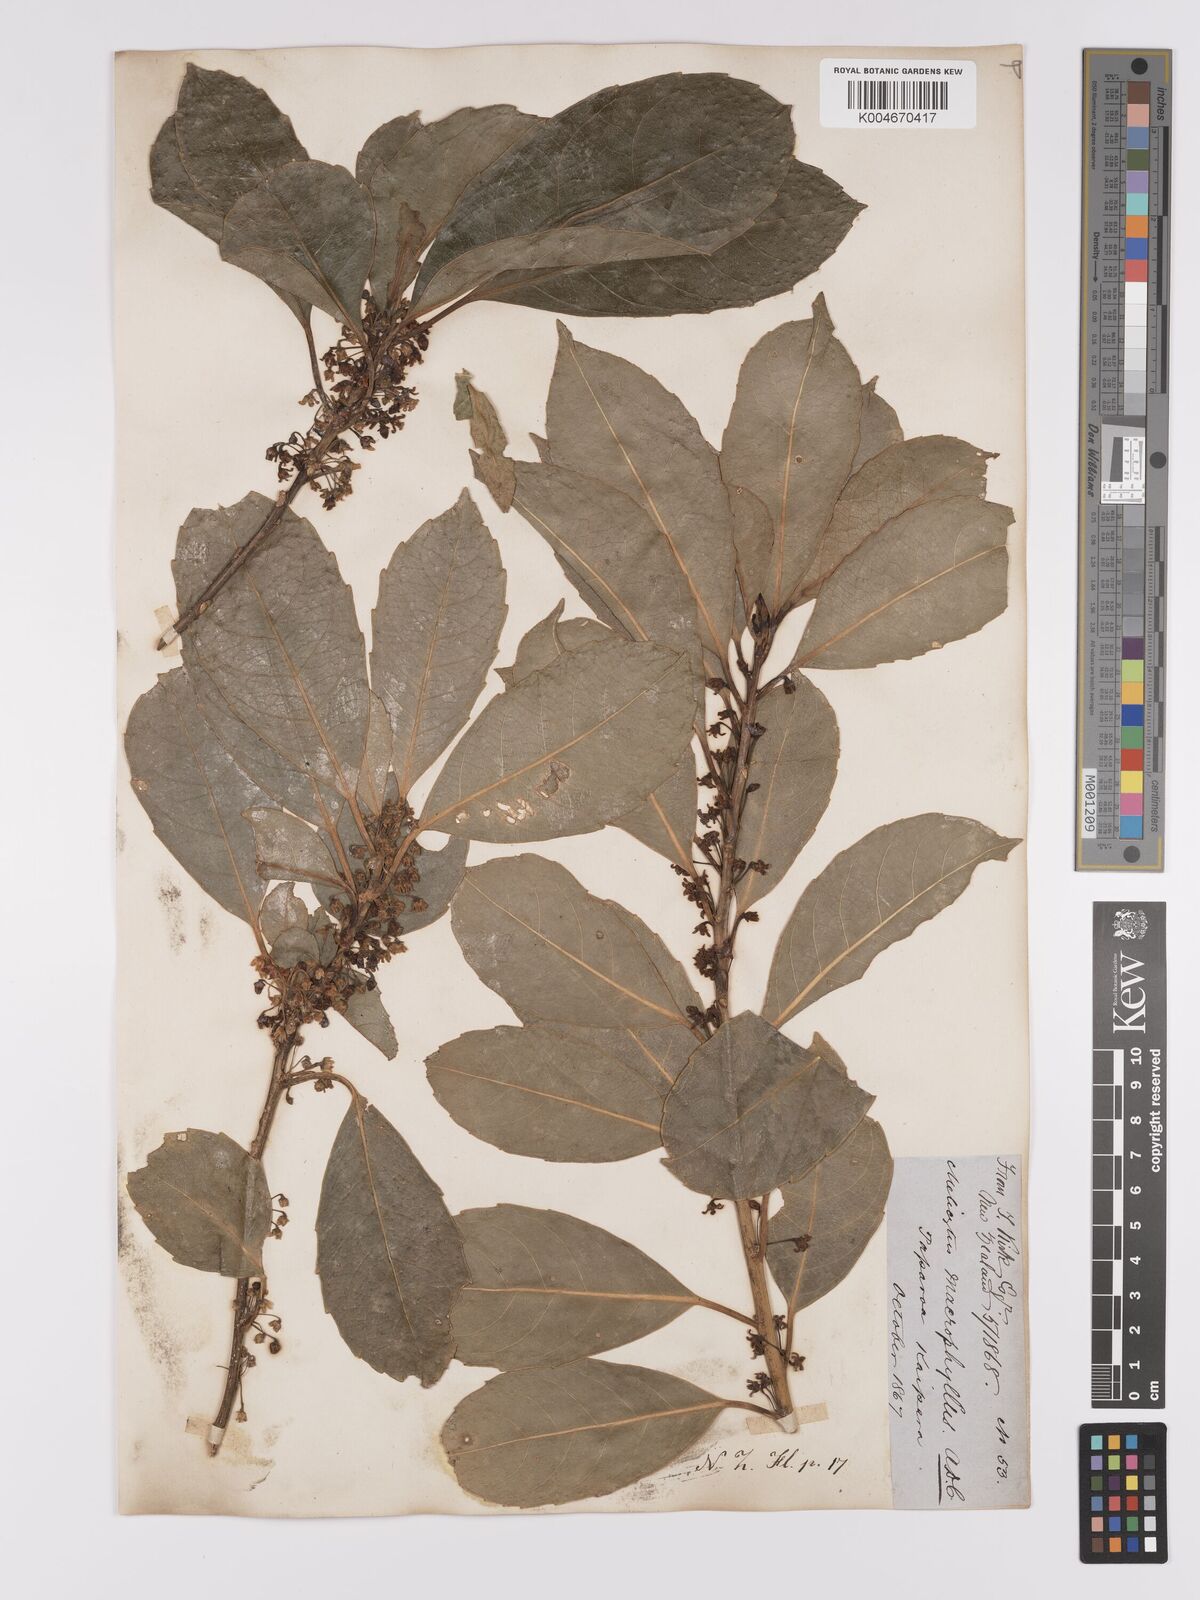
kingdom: Plantae
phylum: Tracheophyta
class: Magnoliopsida
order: Malpighiales
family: Violaceae
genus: Melicytus
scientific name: Melicytus macrophyllus
